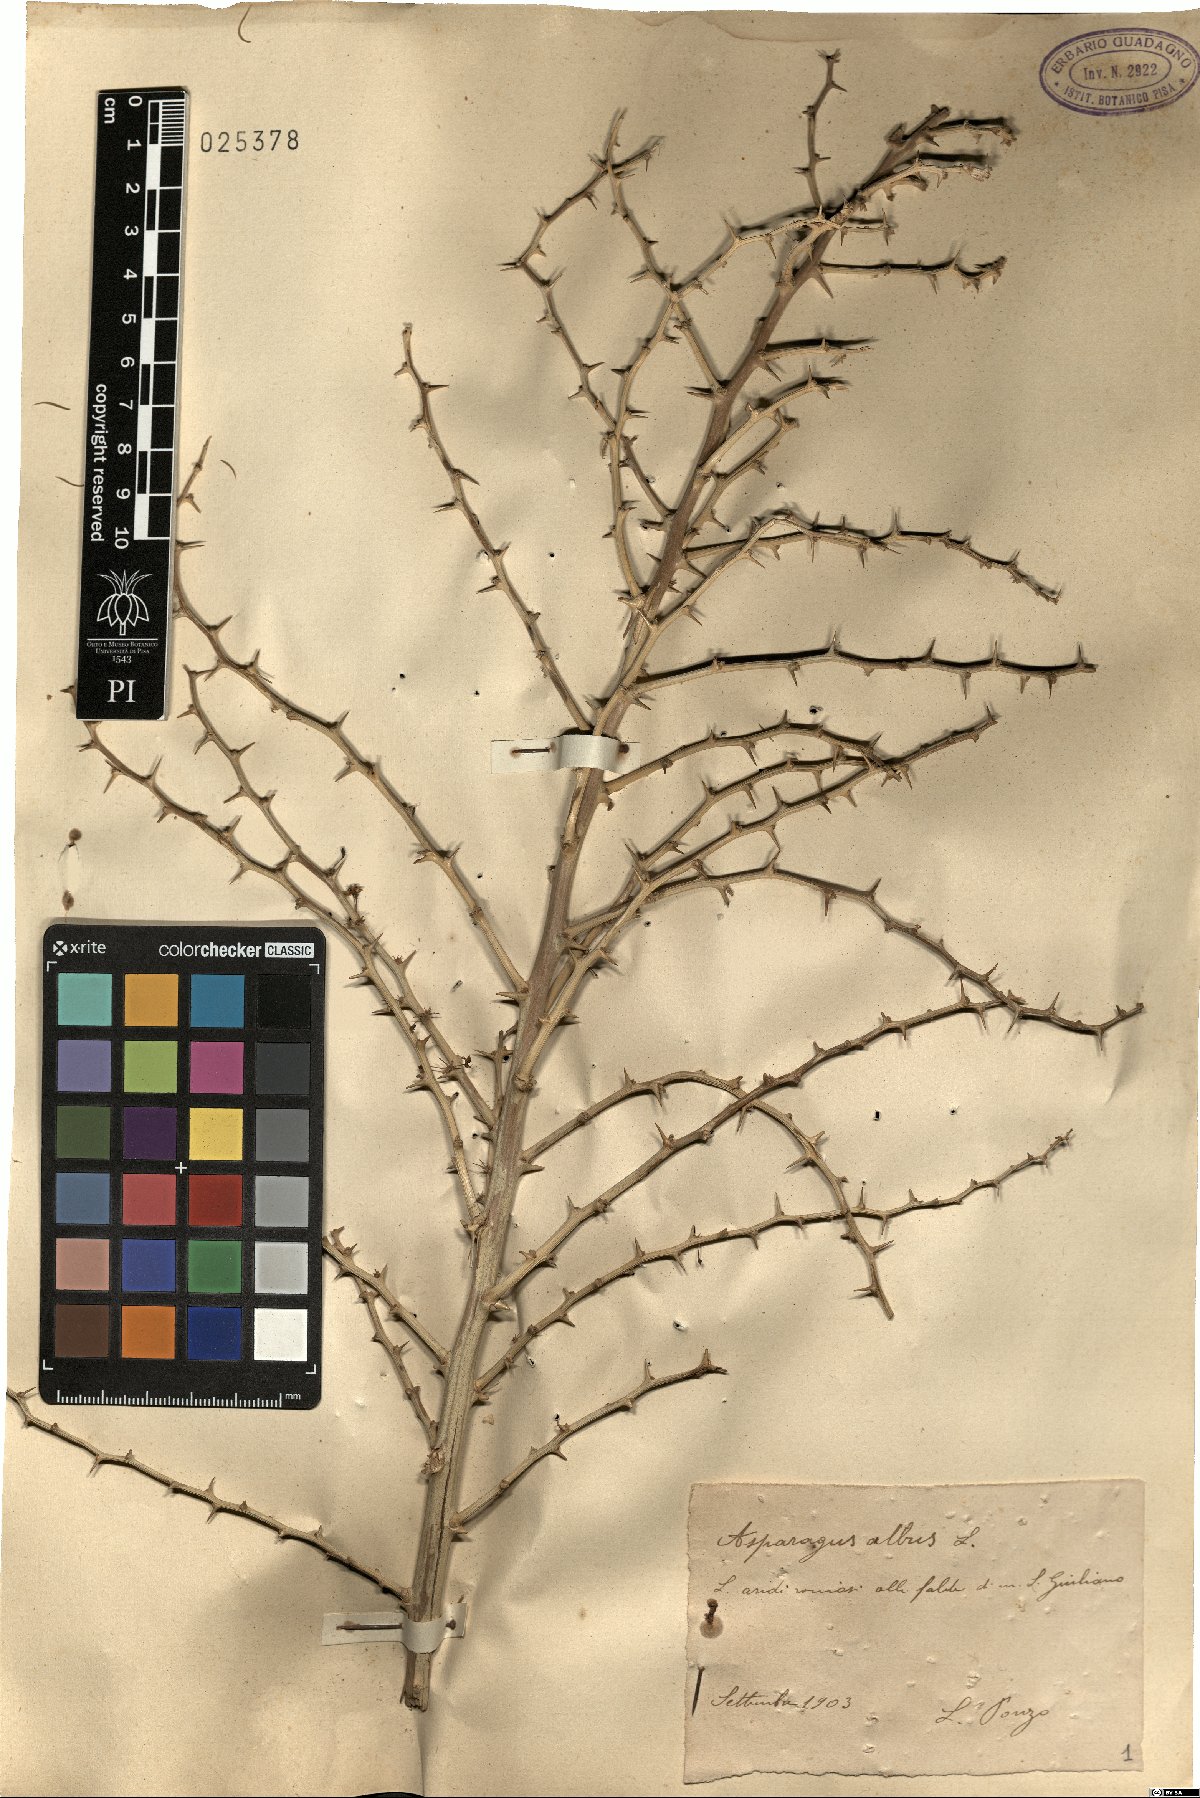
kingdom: Plantae
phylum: Tracheophyta
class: Liliopsida
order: Asparagales
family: Asparagaceae
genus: Asparagus
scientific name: Asparagus albus
